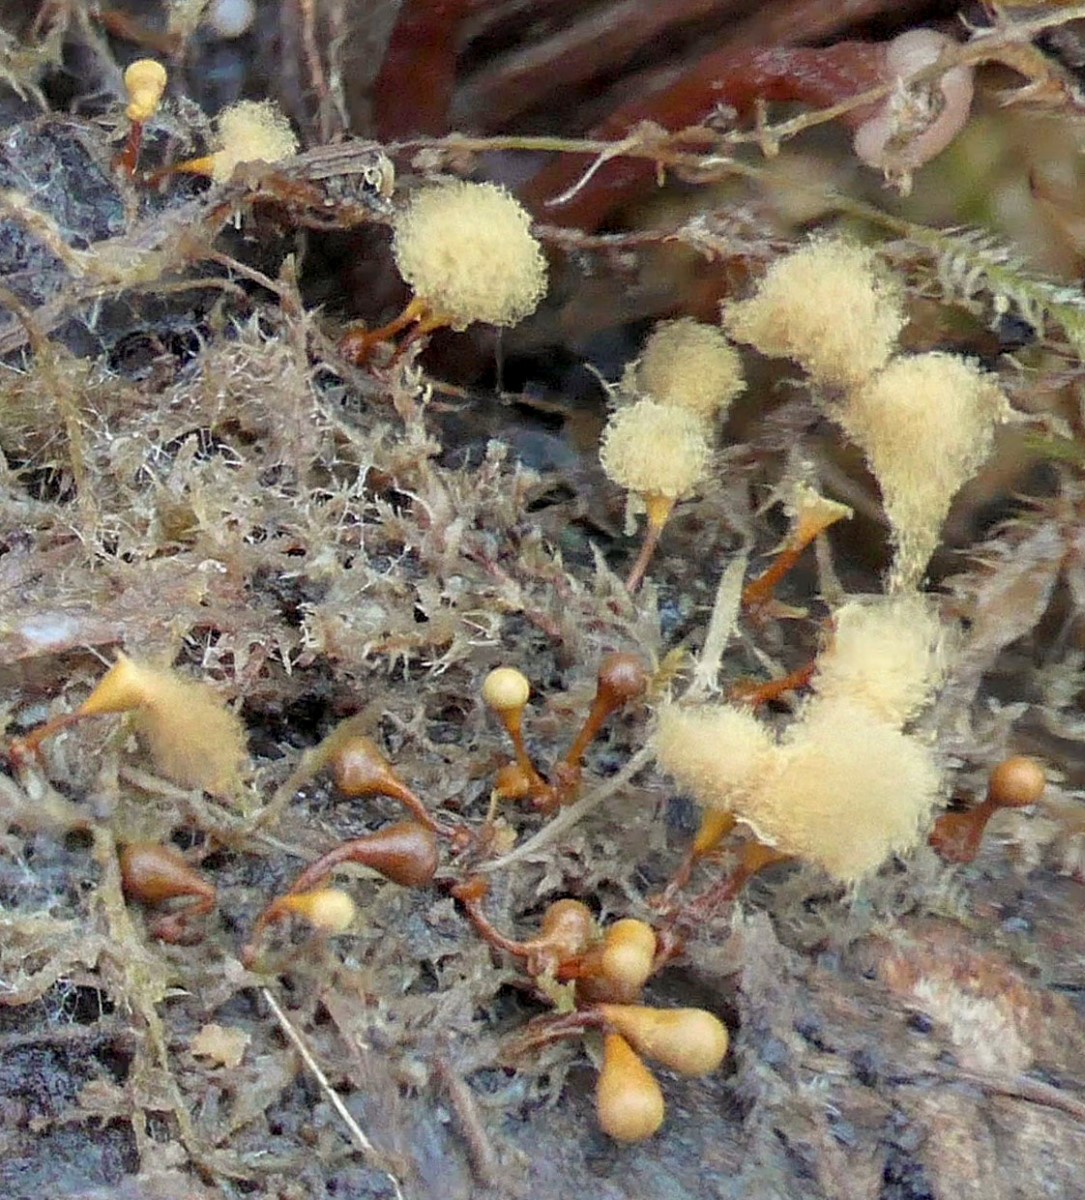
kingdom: Protozoa
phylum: Mycetozoa
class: Myxomycetes
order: Trichiales
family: Trichiaceae
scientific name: Trichiaceae
